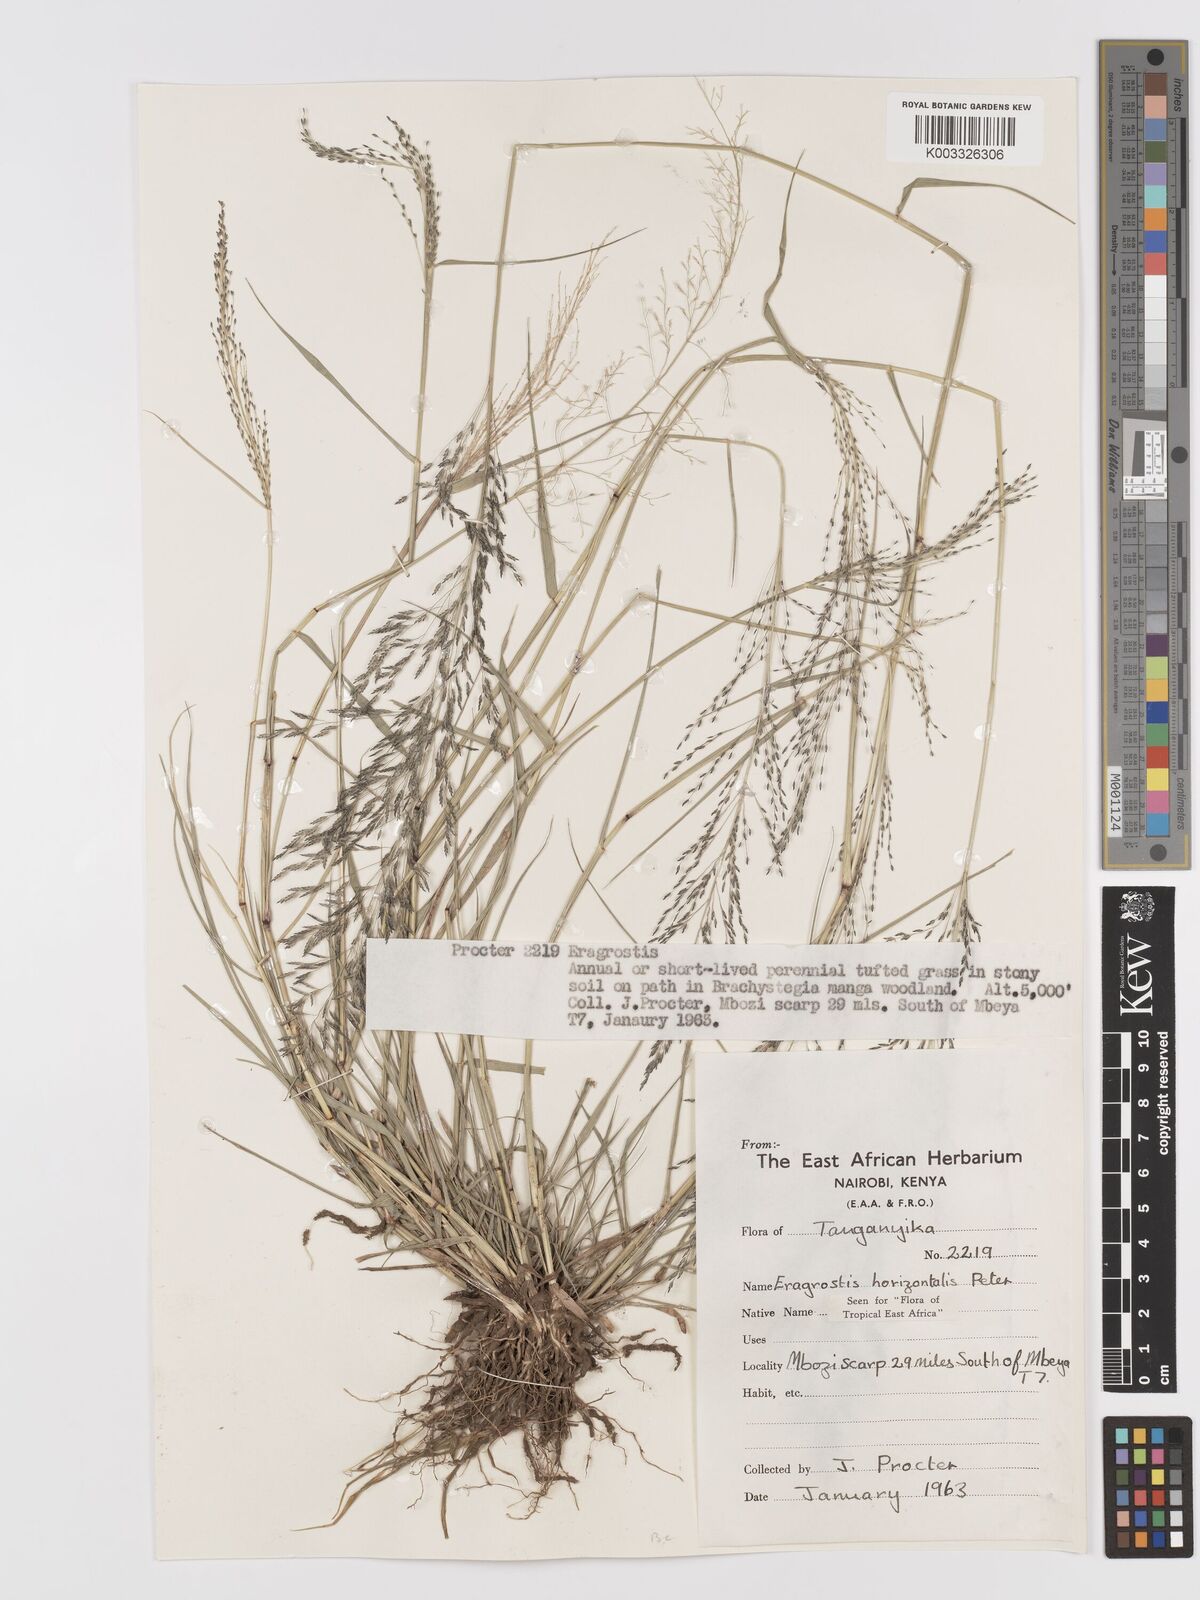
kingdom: Plantae
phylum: Tracheophyta
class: Liliopsida
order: Poales
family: Poaceae
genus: Eragrostis
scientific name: Eragrostis cylindriflora
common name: Cylinderflower lovegrass
